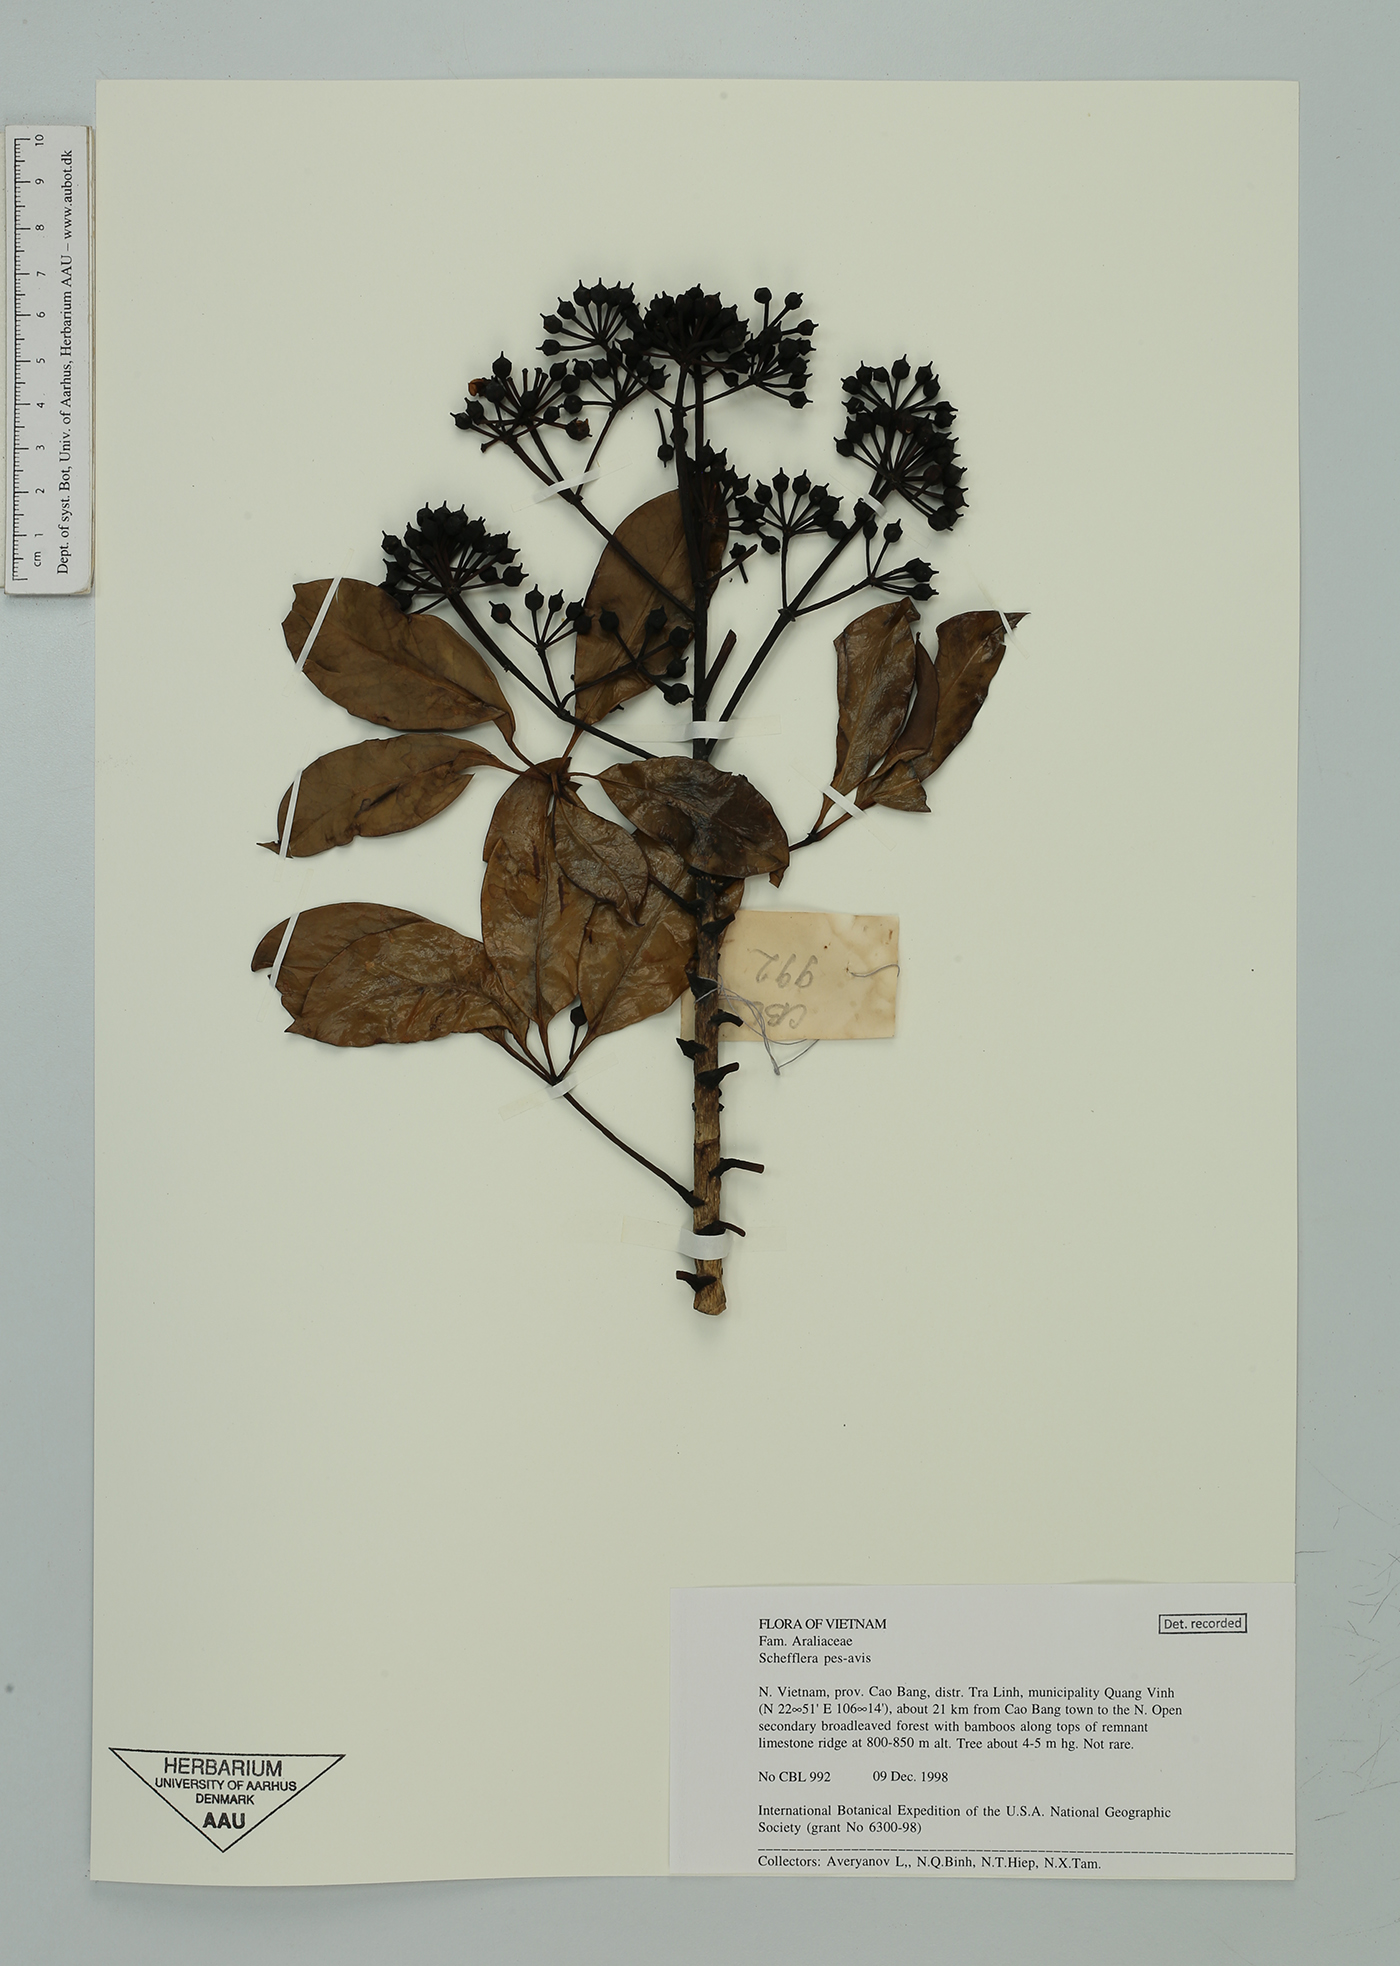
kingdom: Plantae
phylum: Tracheophyta
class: Magnoliopsida
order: Apiales
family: Araliaceae
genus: Heptapleurum
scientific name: Heptapleurum pes-avis
